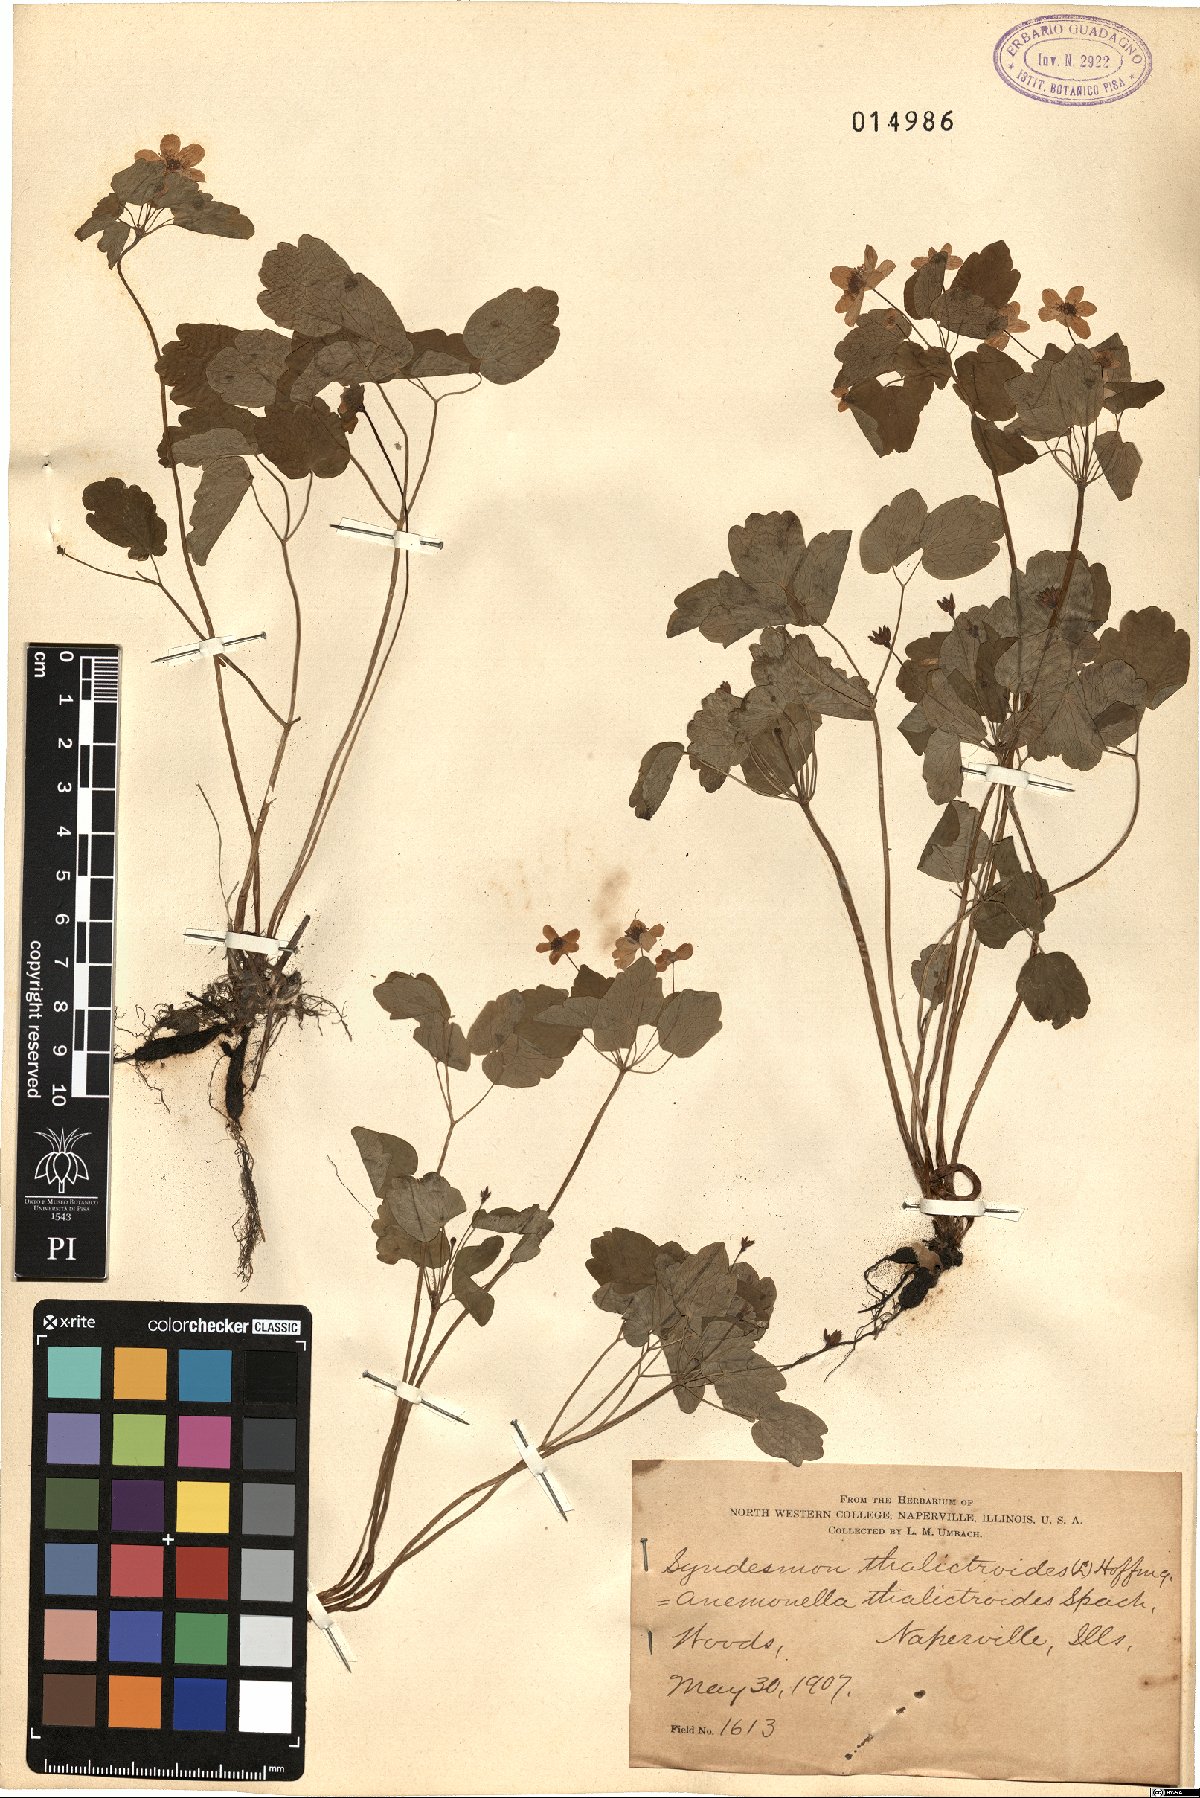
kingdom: Plantae
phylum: Tracheophyta
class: Magnoliopsida
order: Ranunculales
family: Ranunculaceae
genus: Thalictrum
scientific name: Thalictrum thalictroides
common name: Rue-anemone
